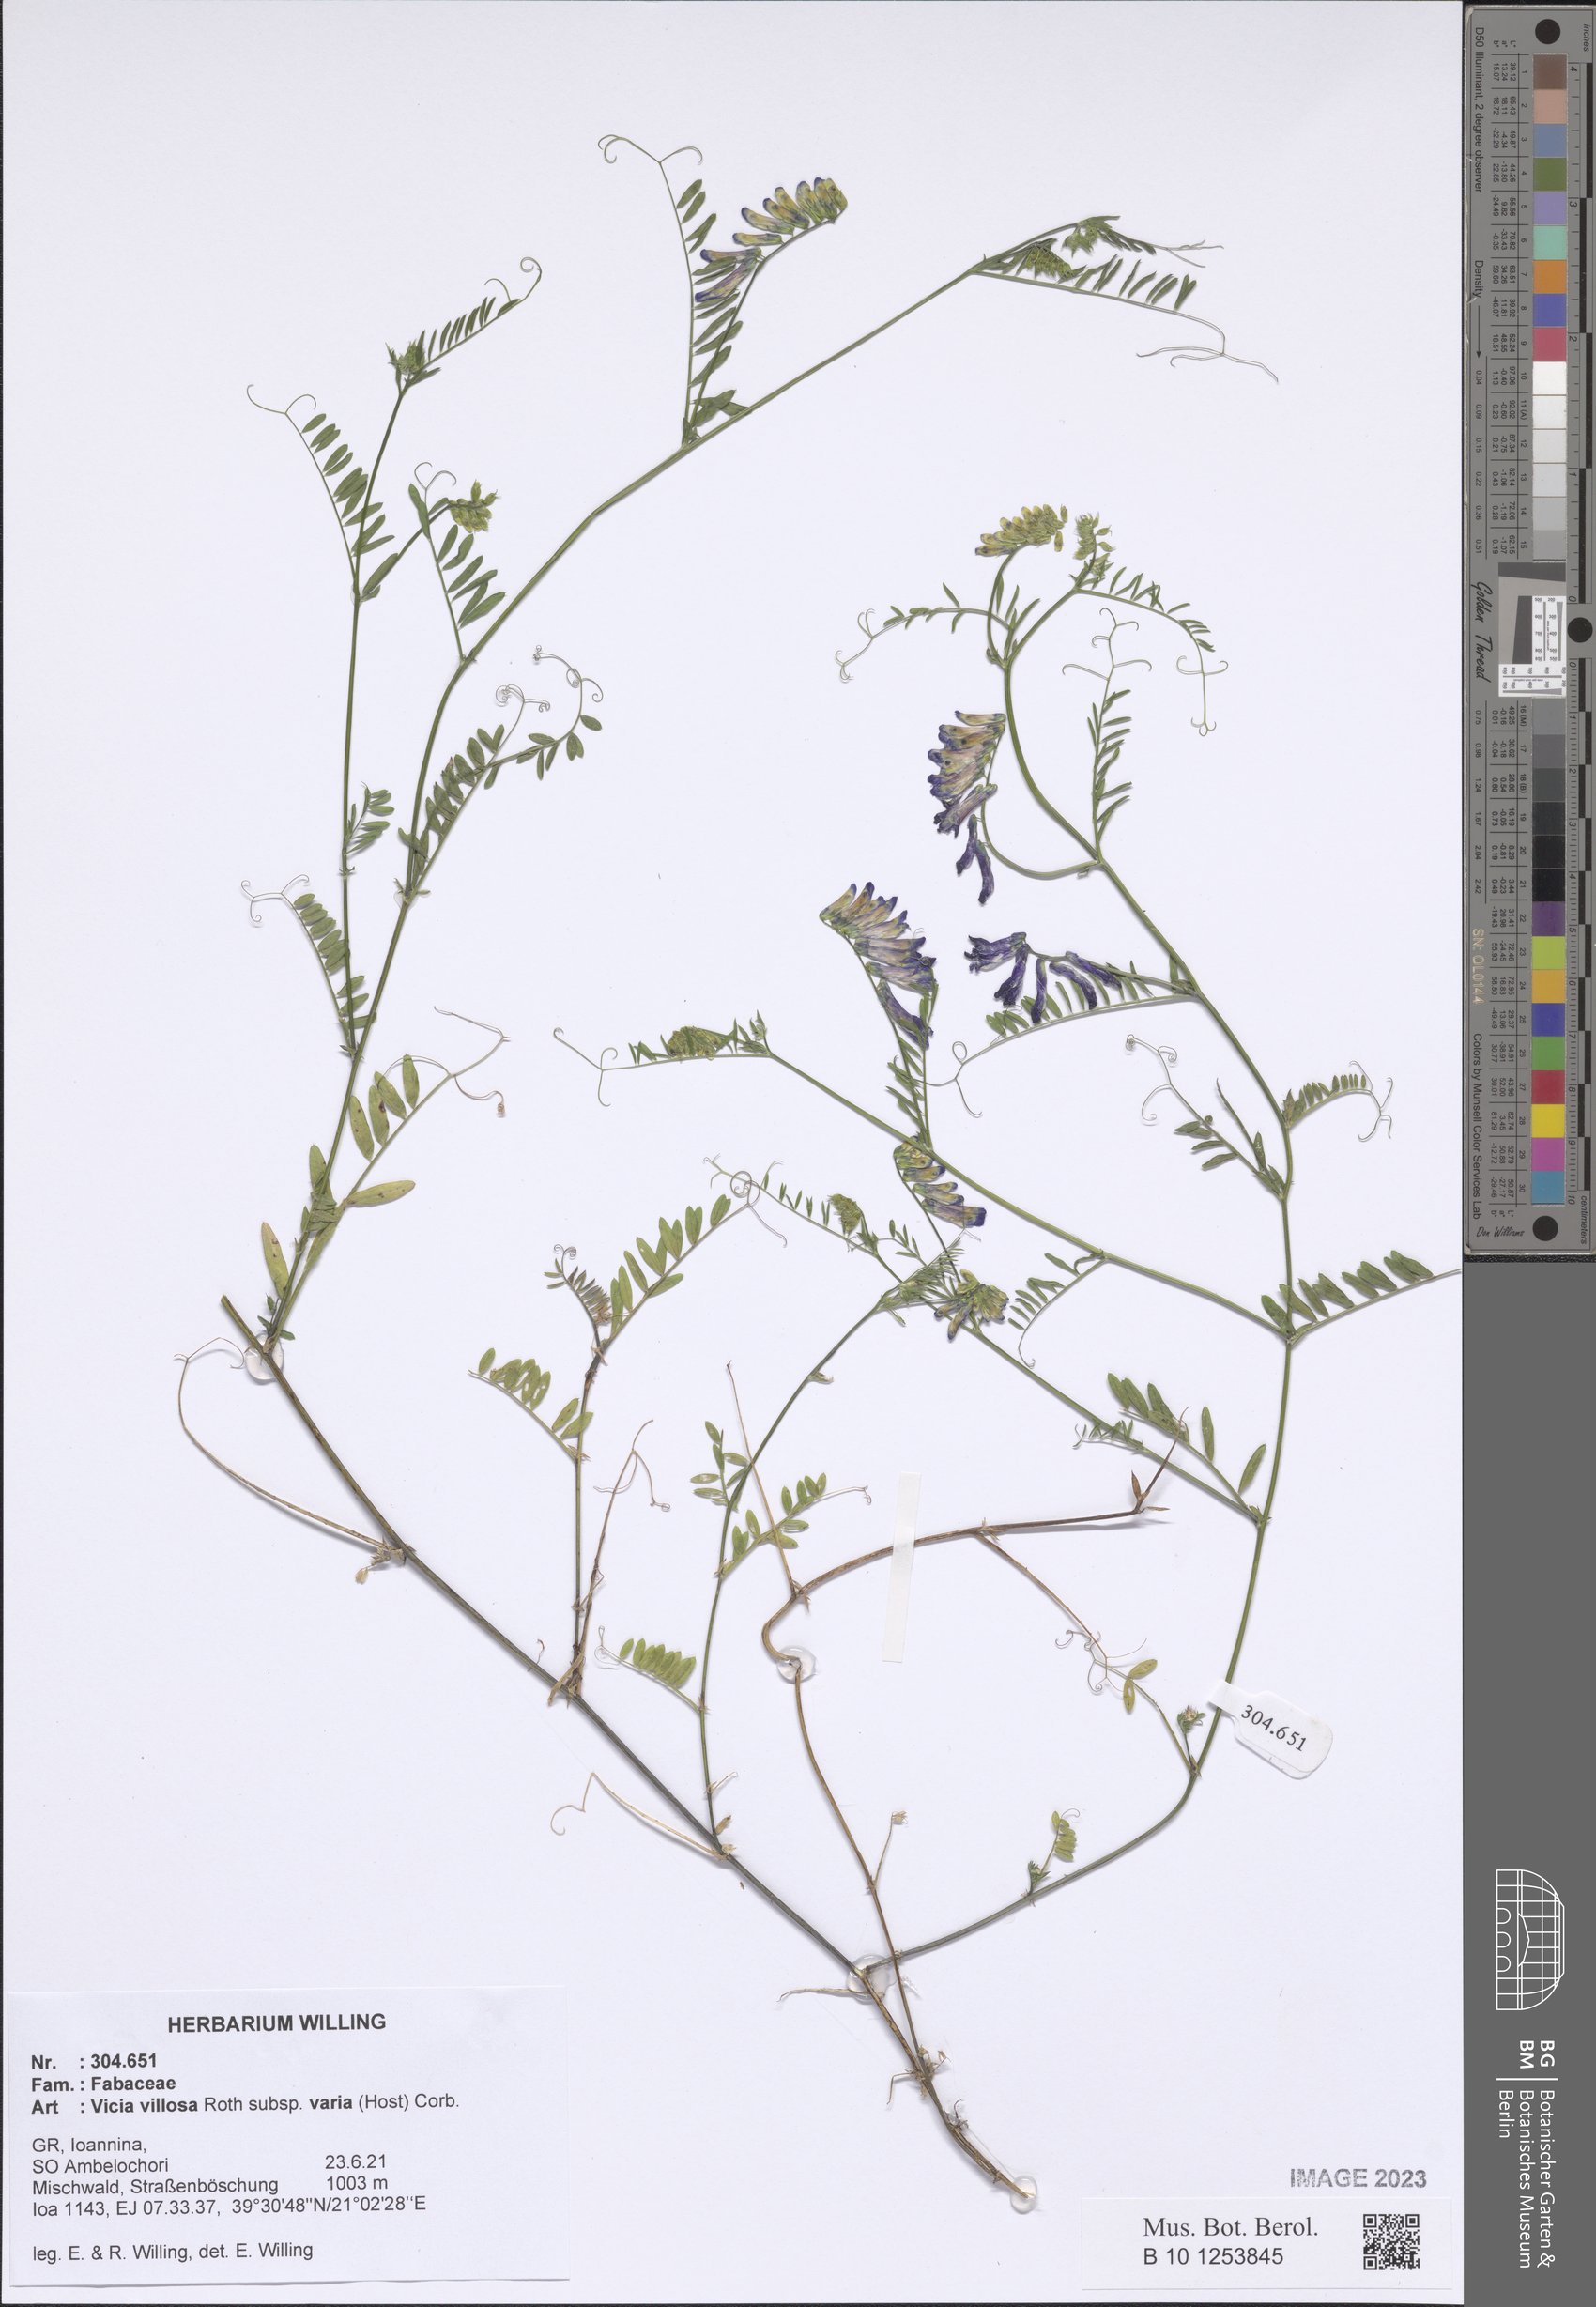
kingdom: Plantae
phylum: Tracheophyta
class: Magnoliopsida
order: Fabales
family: Fabaceae
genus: Vicia
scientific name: Vicia villosa
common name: Fodder vetch
